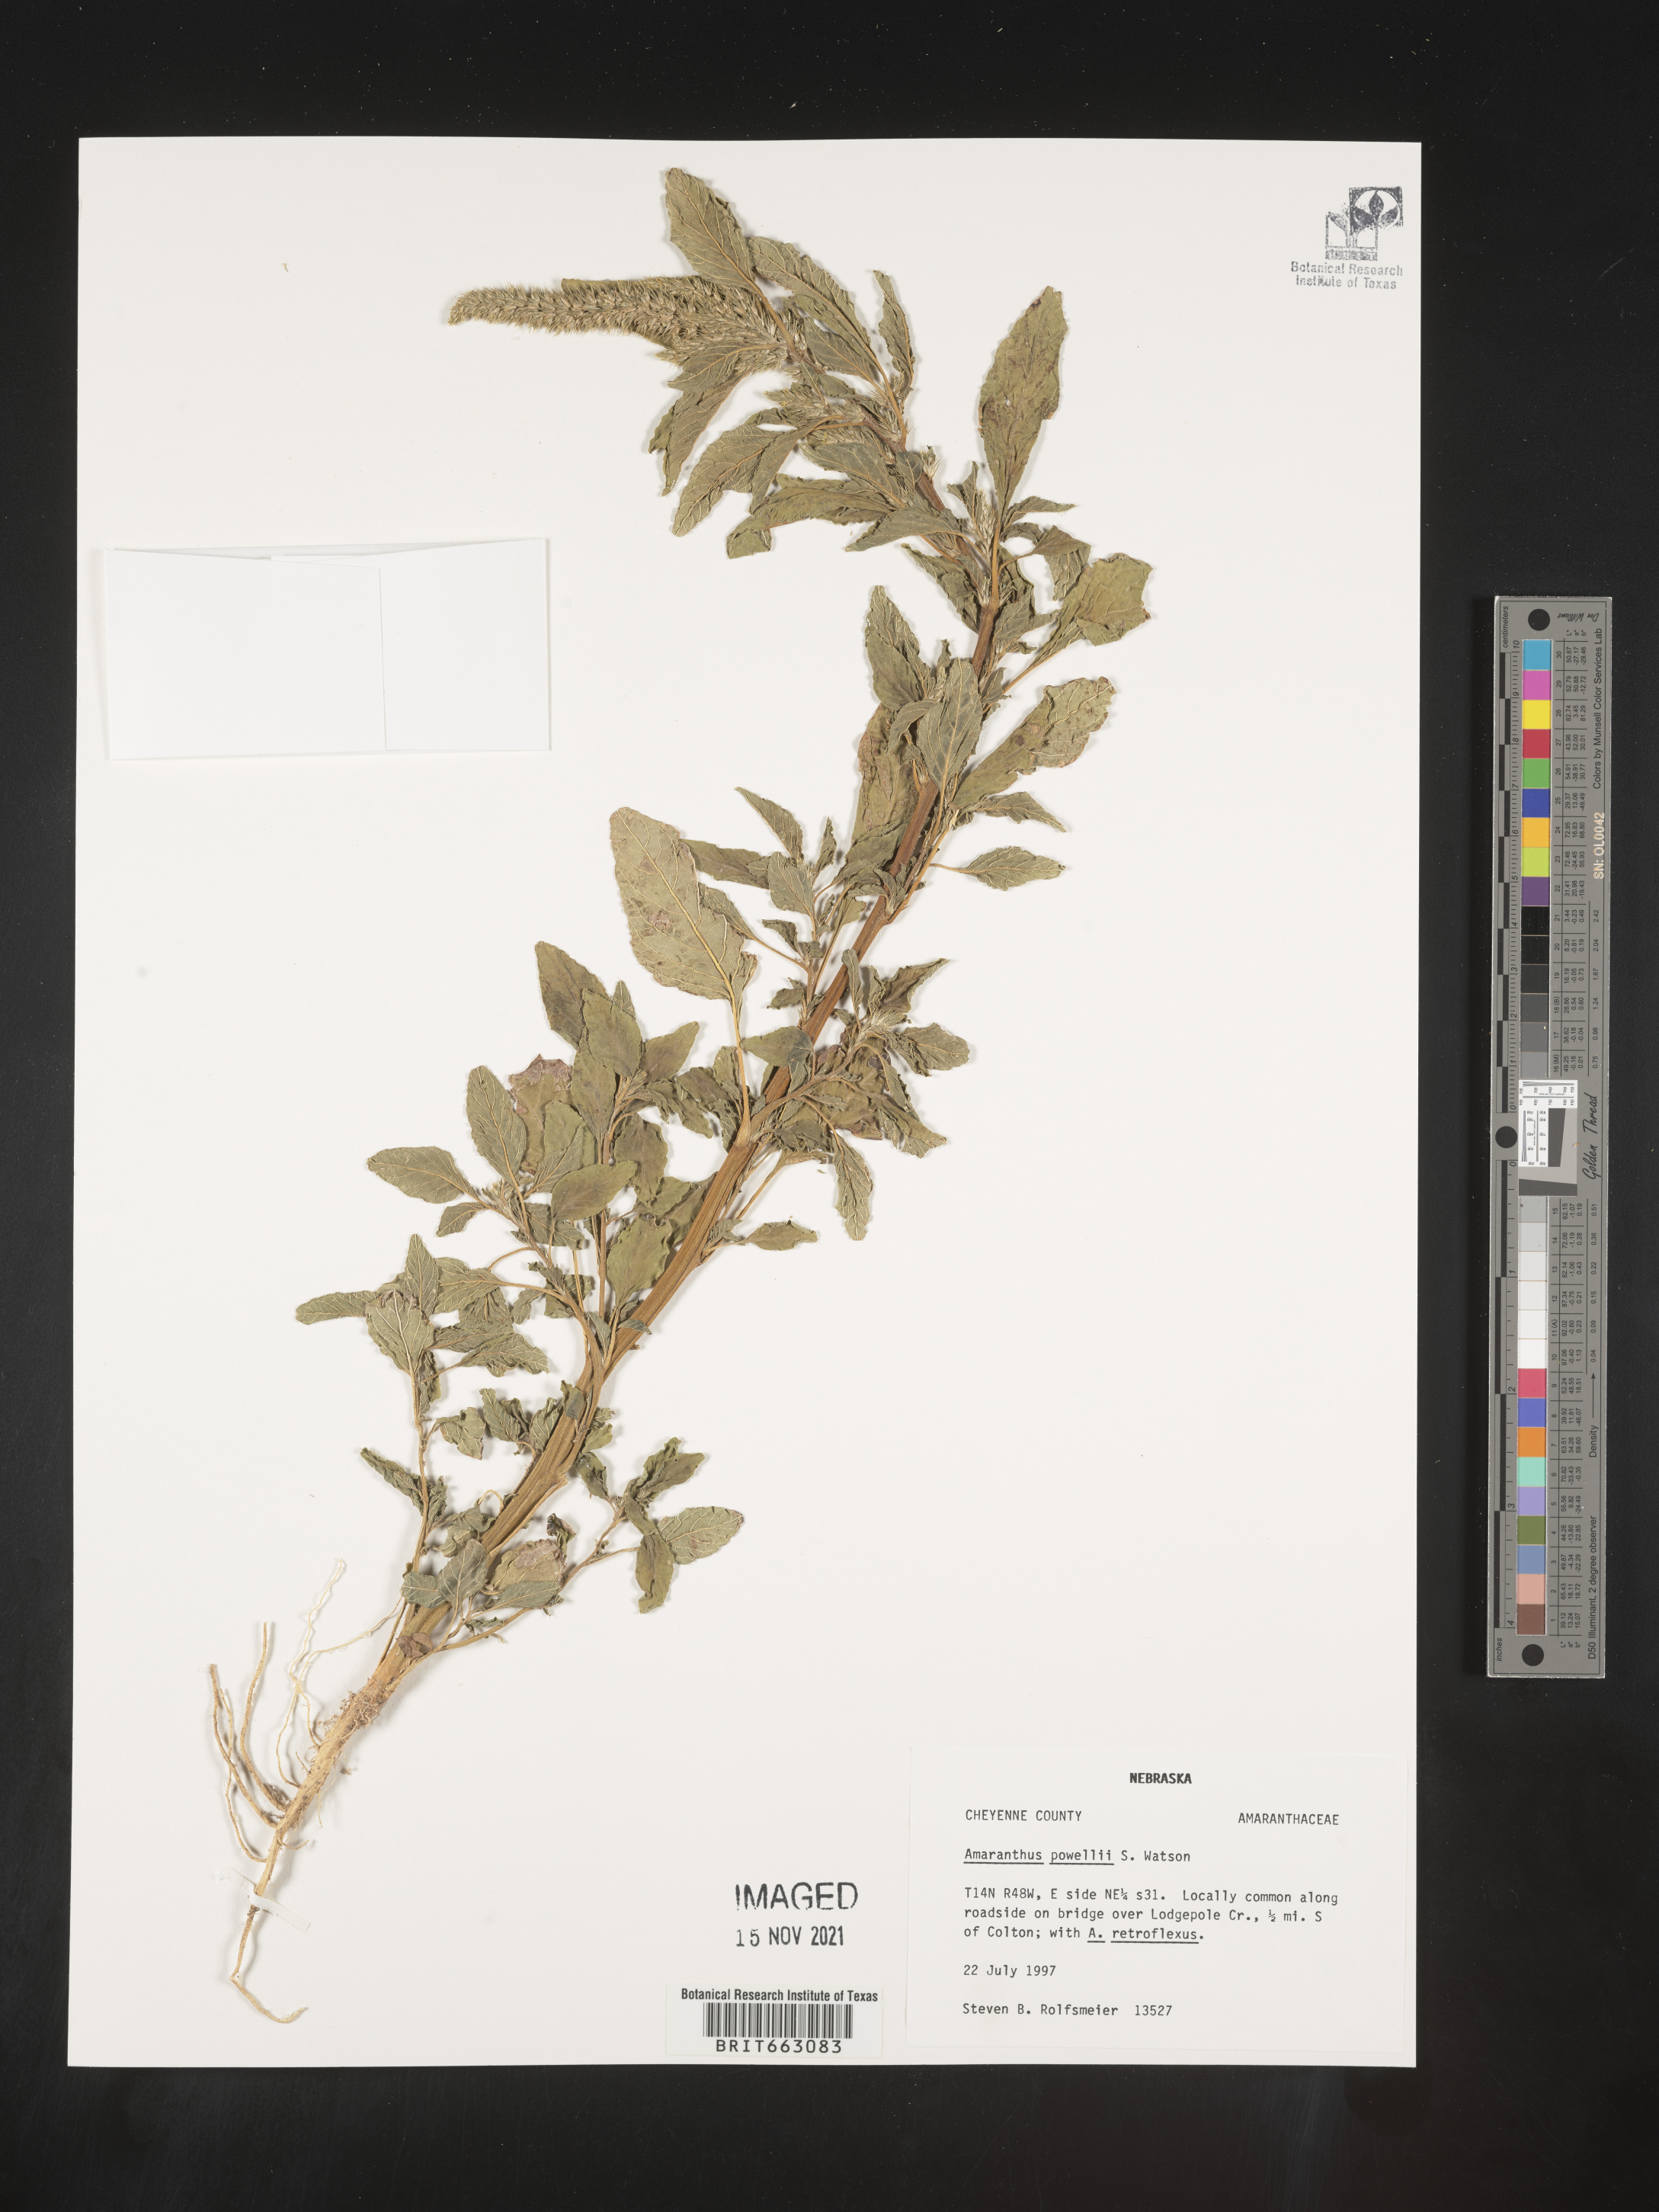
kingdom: Plantae
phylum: Tracheophyta
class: Magnoliopsida
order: Caryophyllales
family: Amaranthaceae
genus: Amaranthus
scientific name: Amaranthus powellii
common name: Powell's amaranth
